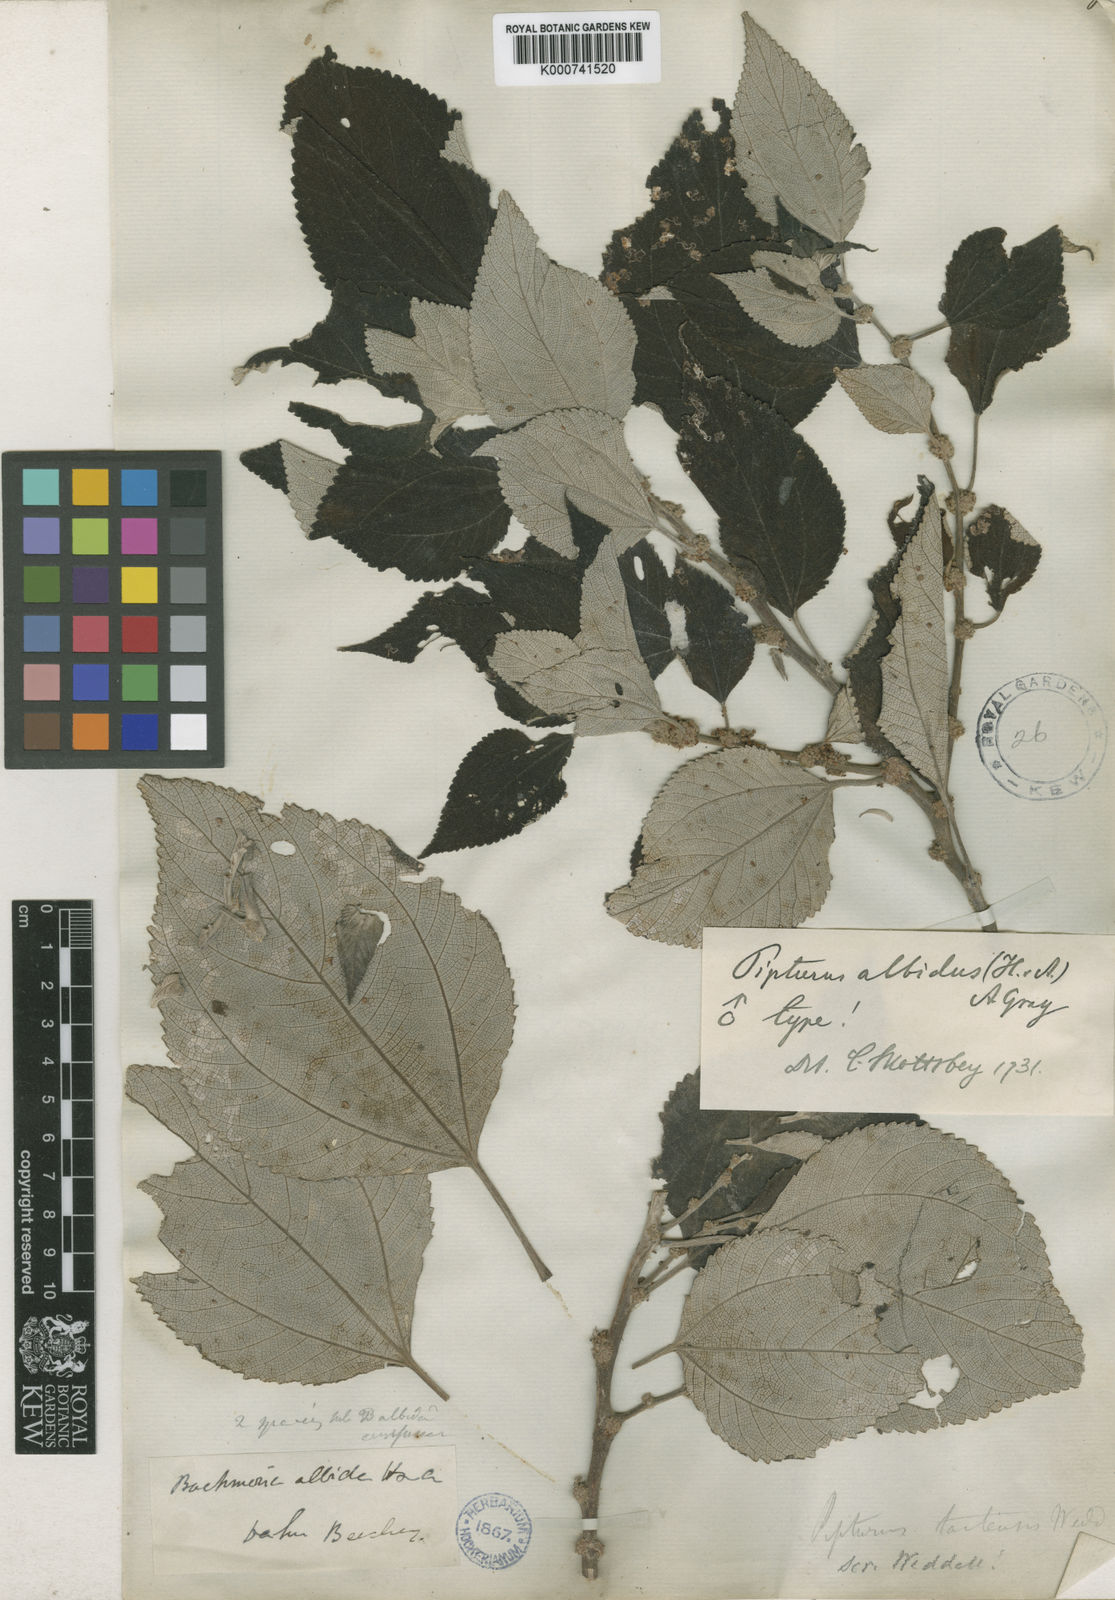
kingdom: Plantae
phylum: Tracheophyta
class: Magnoliopsida
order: Rosales
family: Urticaceae
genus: Pipturus
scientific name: Pipturus albidus
